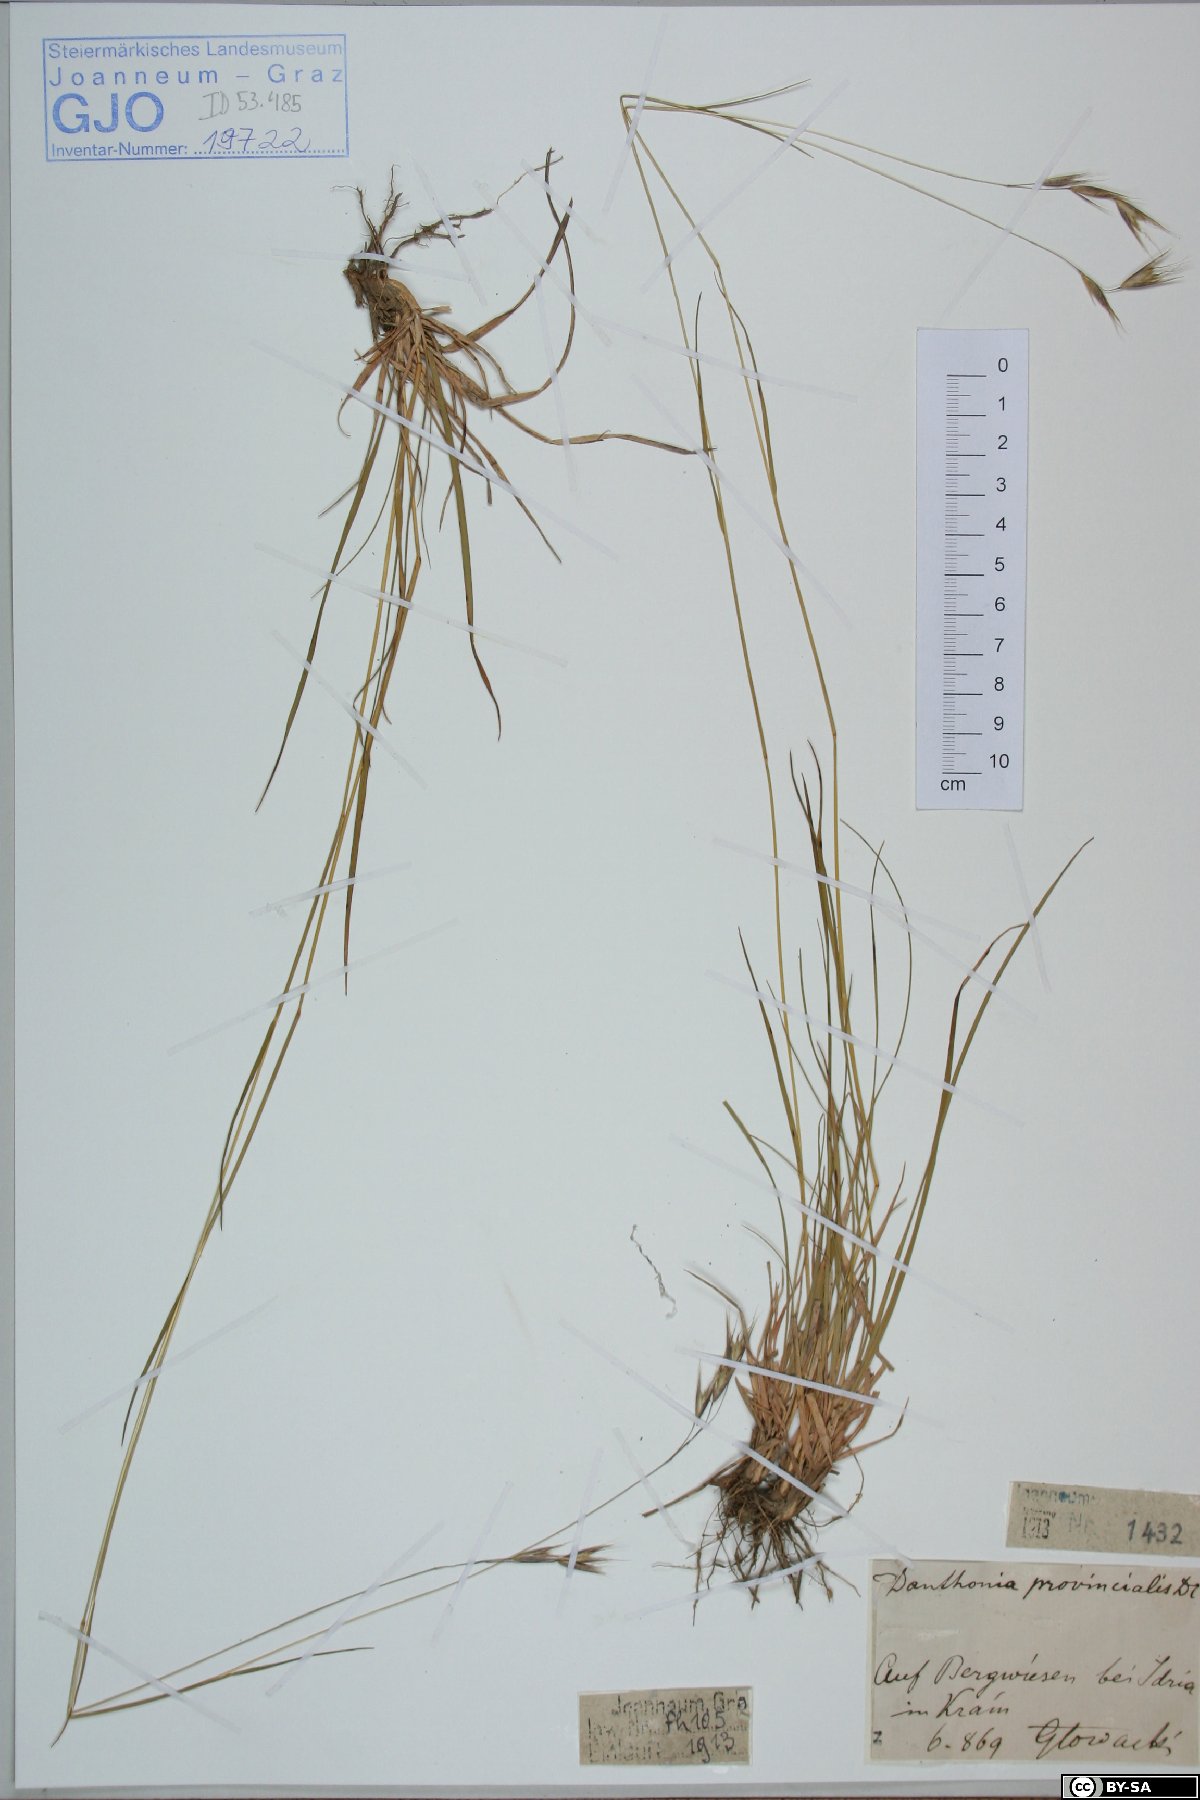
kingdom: Plantae
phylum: Tracheophyta
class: Liliopsida
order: Poales
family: Poaceae
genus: Danthonia
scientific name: Danthonia alpina
